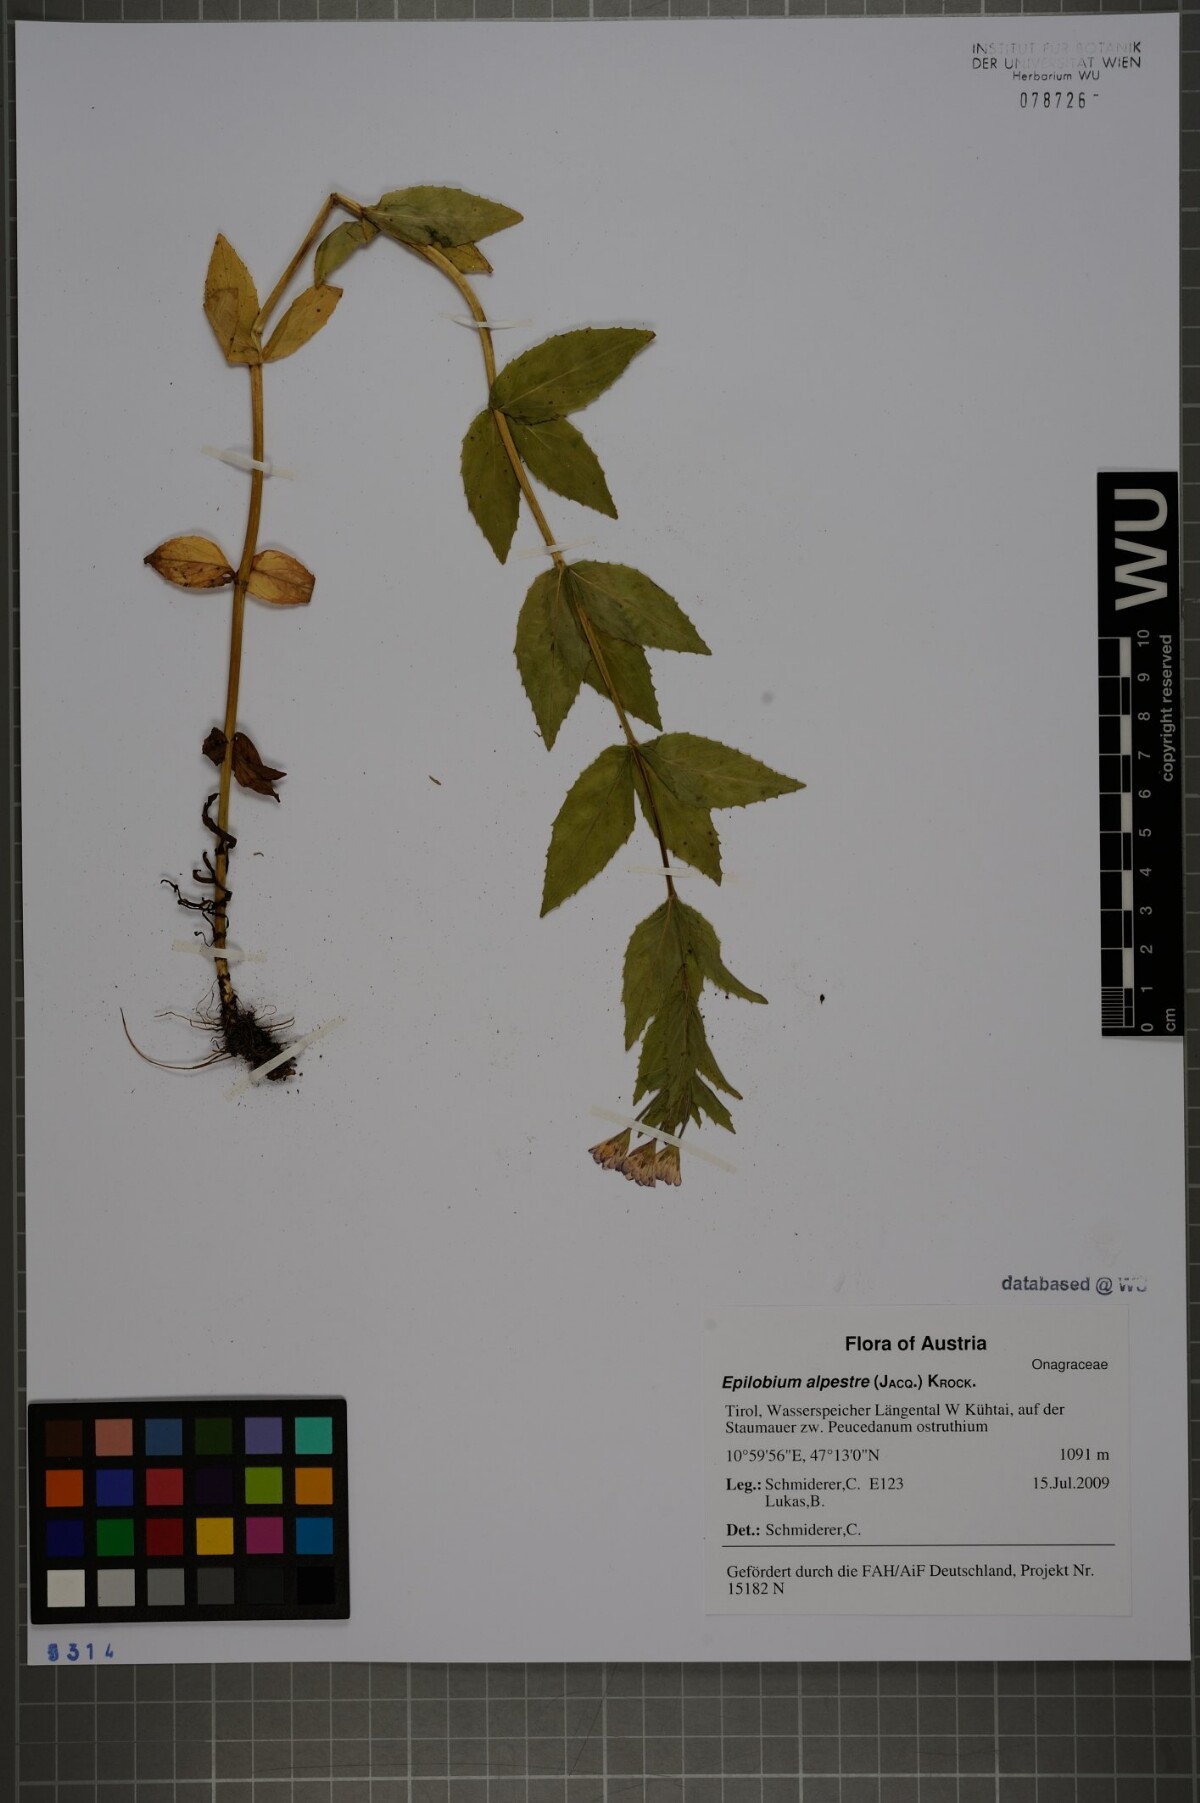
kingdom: Plantae
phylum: Tracheophyta
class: Magnoliopsida
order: Myrtales
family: Onagraceae
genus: Epilobium
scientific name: Epilobium alpestre
